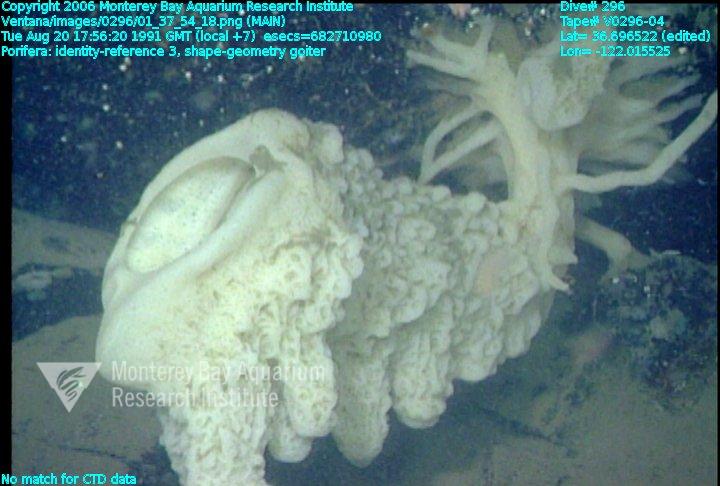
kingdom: Animalia
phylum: Porifera
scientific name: Porifera
